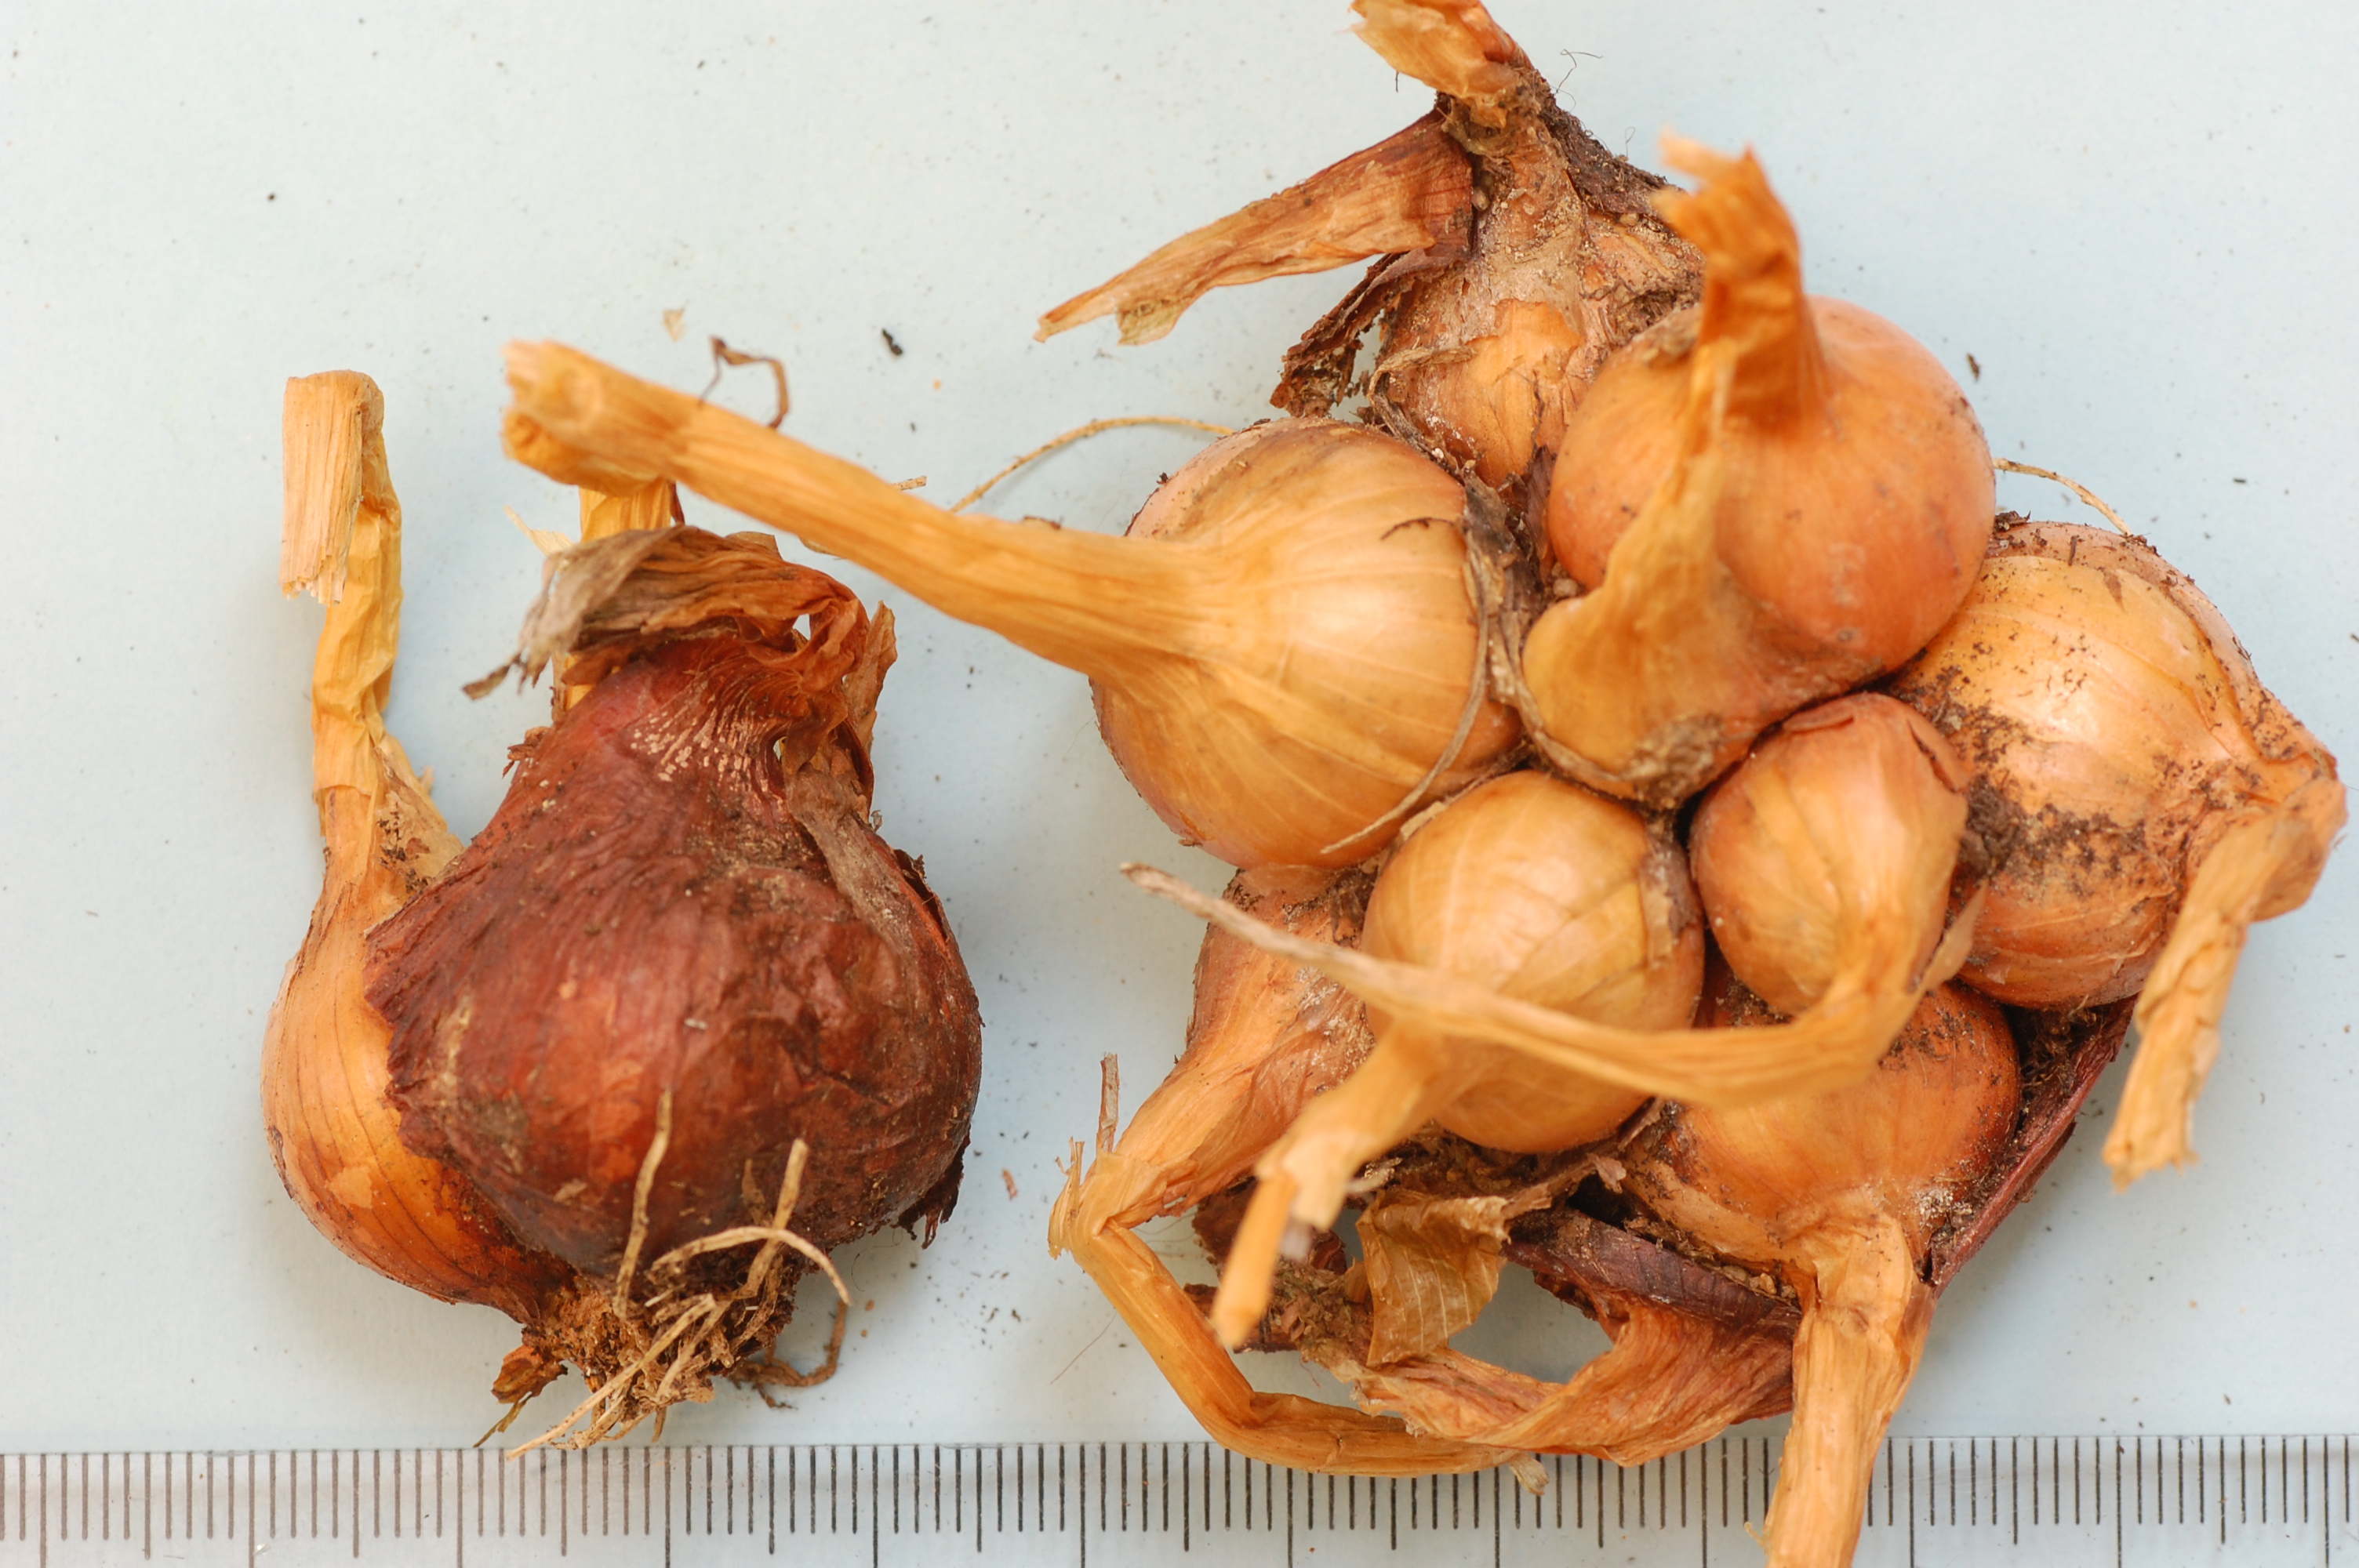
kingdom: Plantae
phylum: Tracheophyta
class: Liliopsida
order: Asparagales
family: Amaryllidaceae
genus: Allium
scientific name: Allium cepa
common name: Onion
